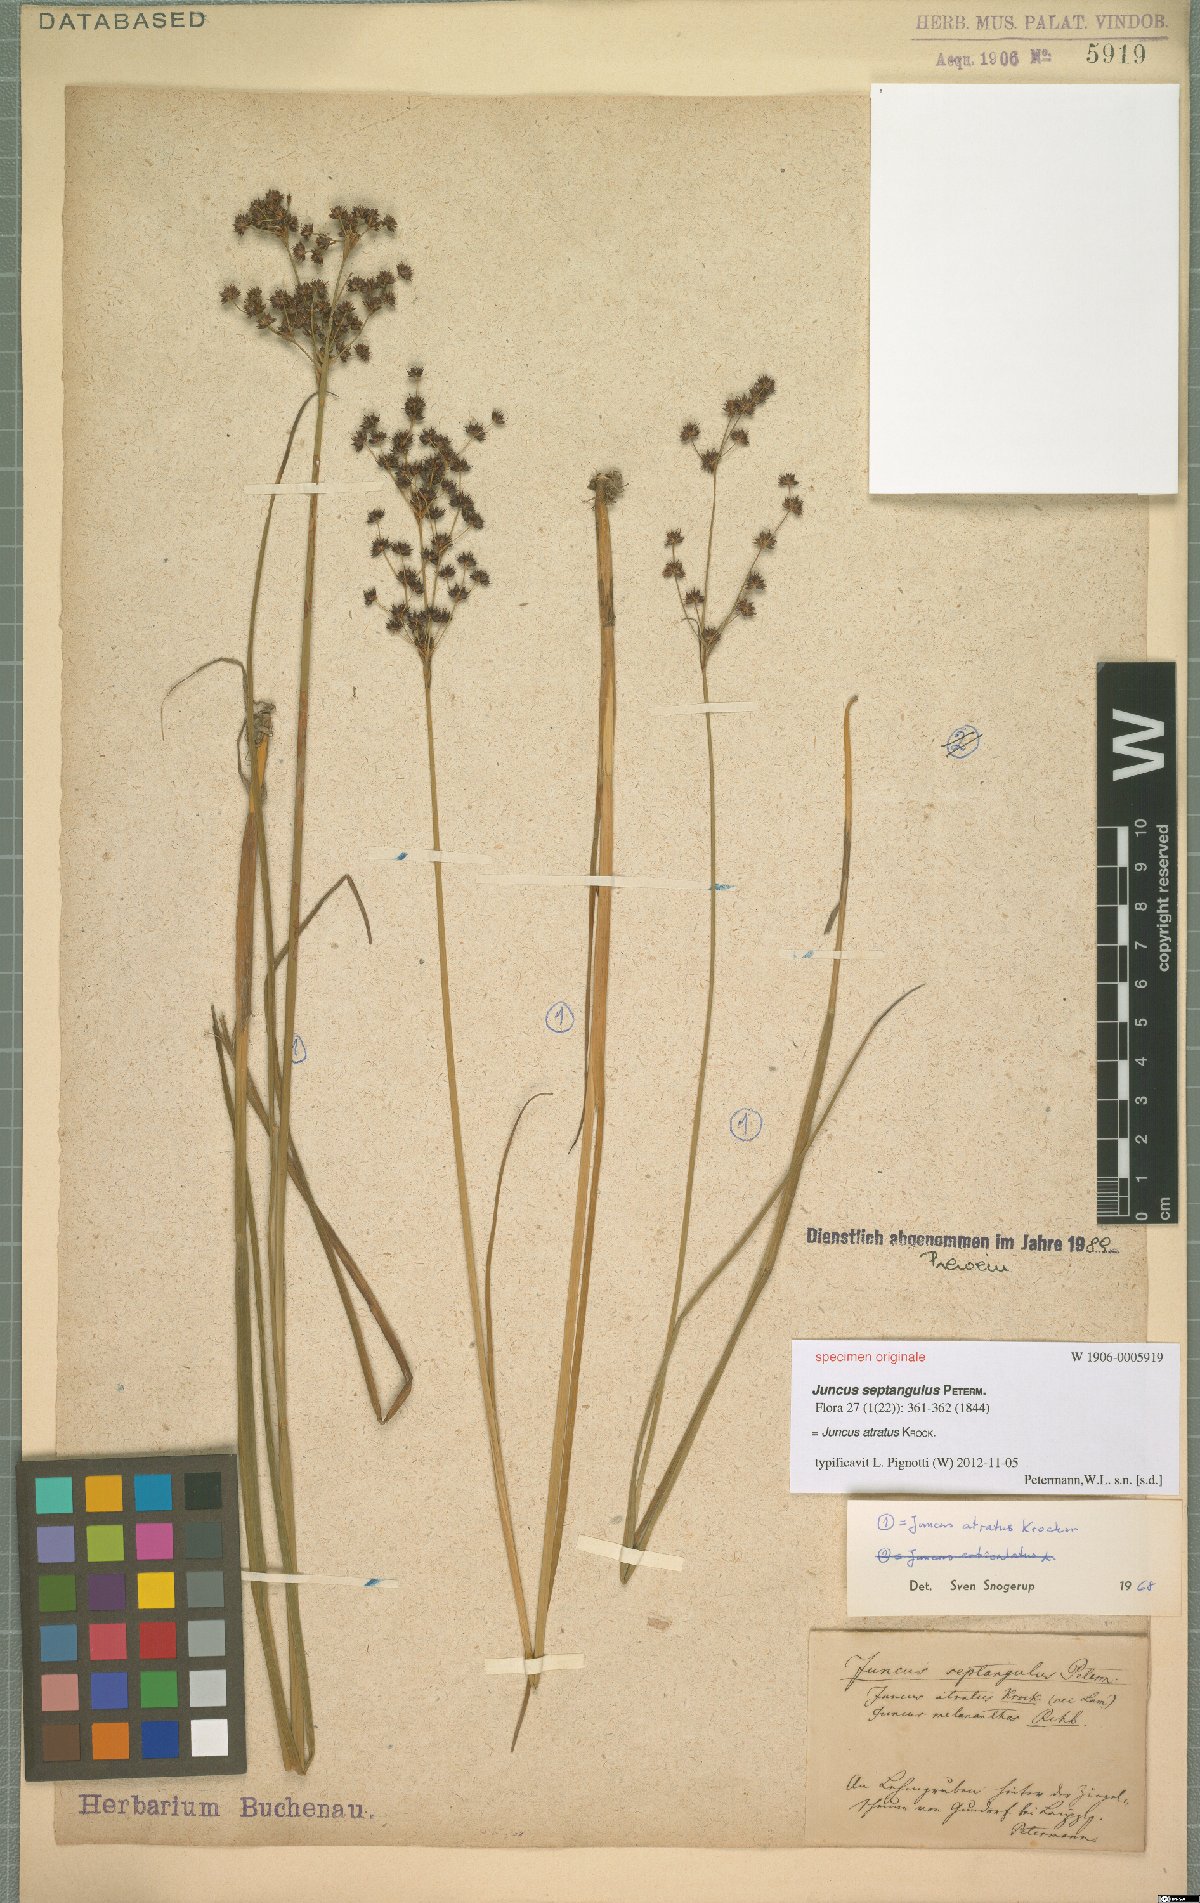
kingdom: Plantae
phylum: Tracheophyta
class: Liliopsida
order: Poales
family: Juncaceae
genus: Juncus
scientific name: Juncus atratus
